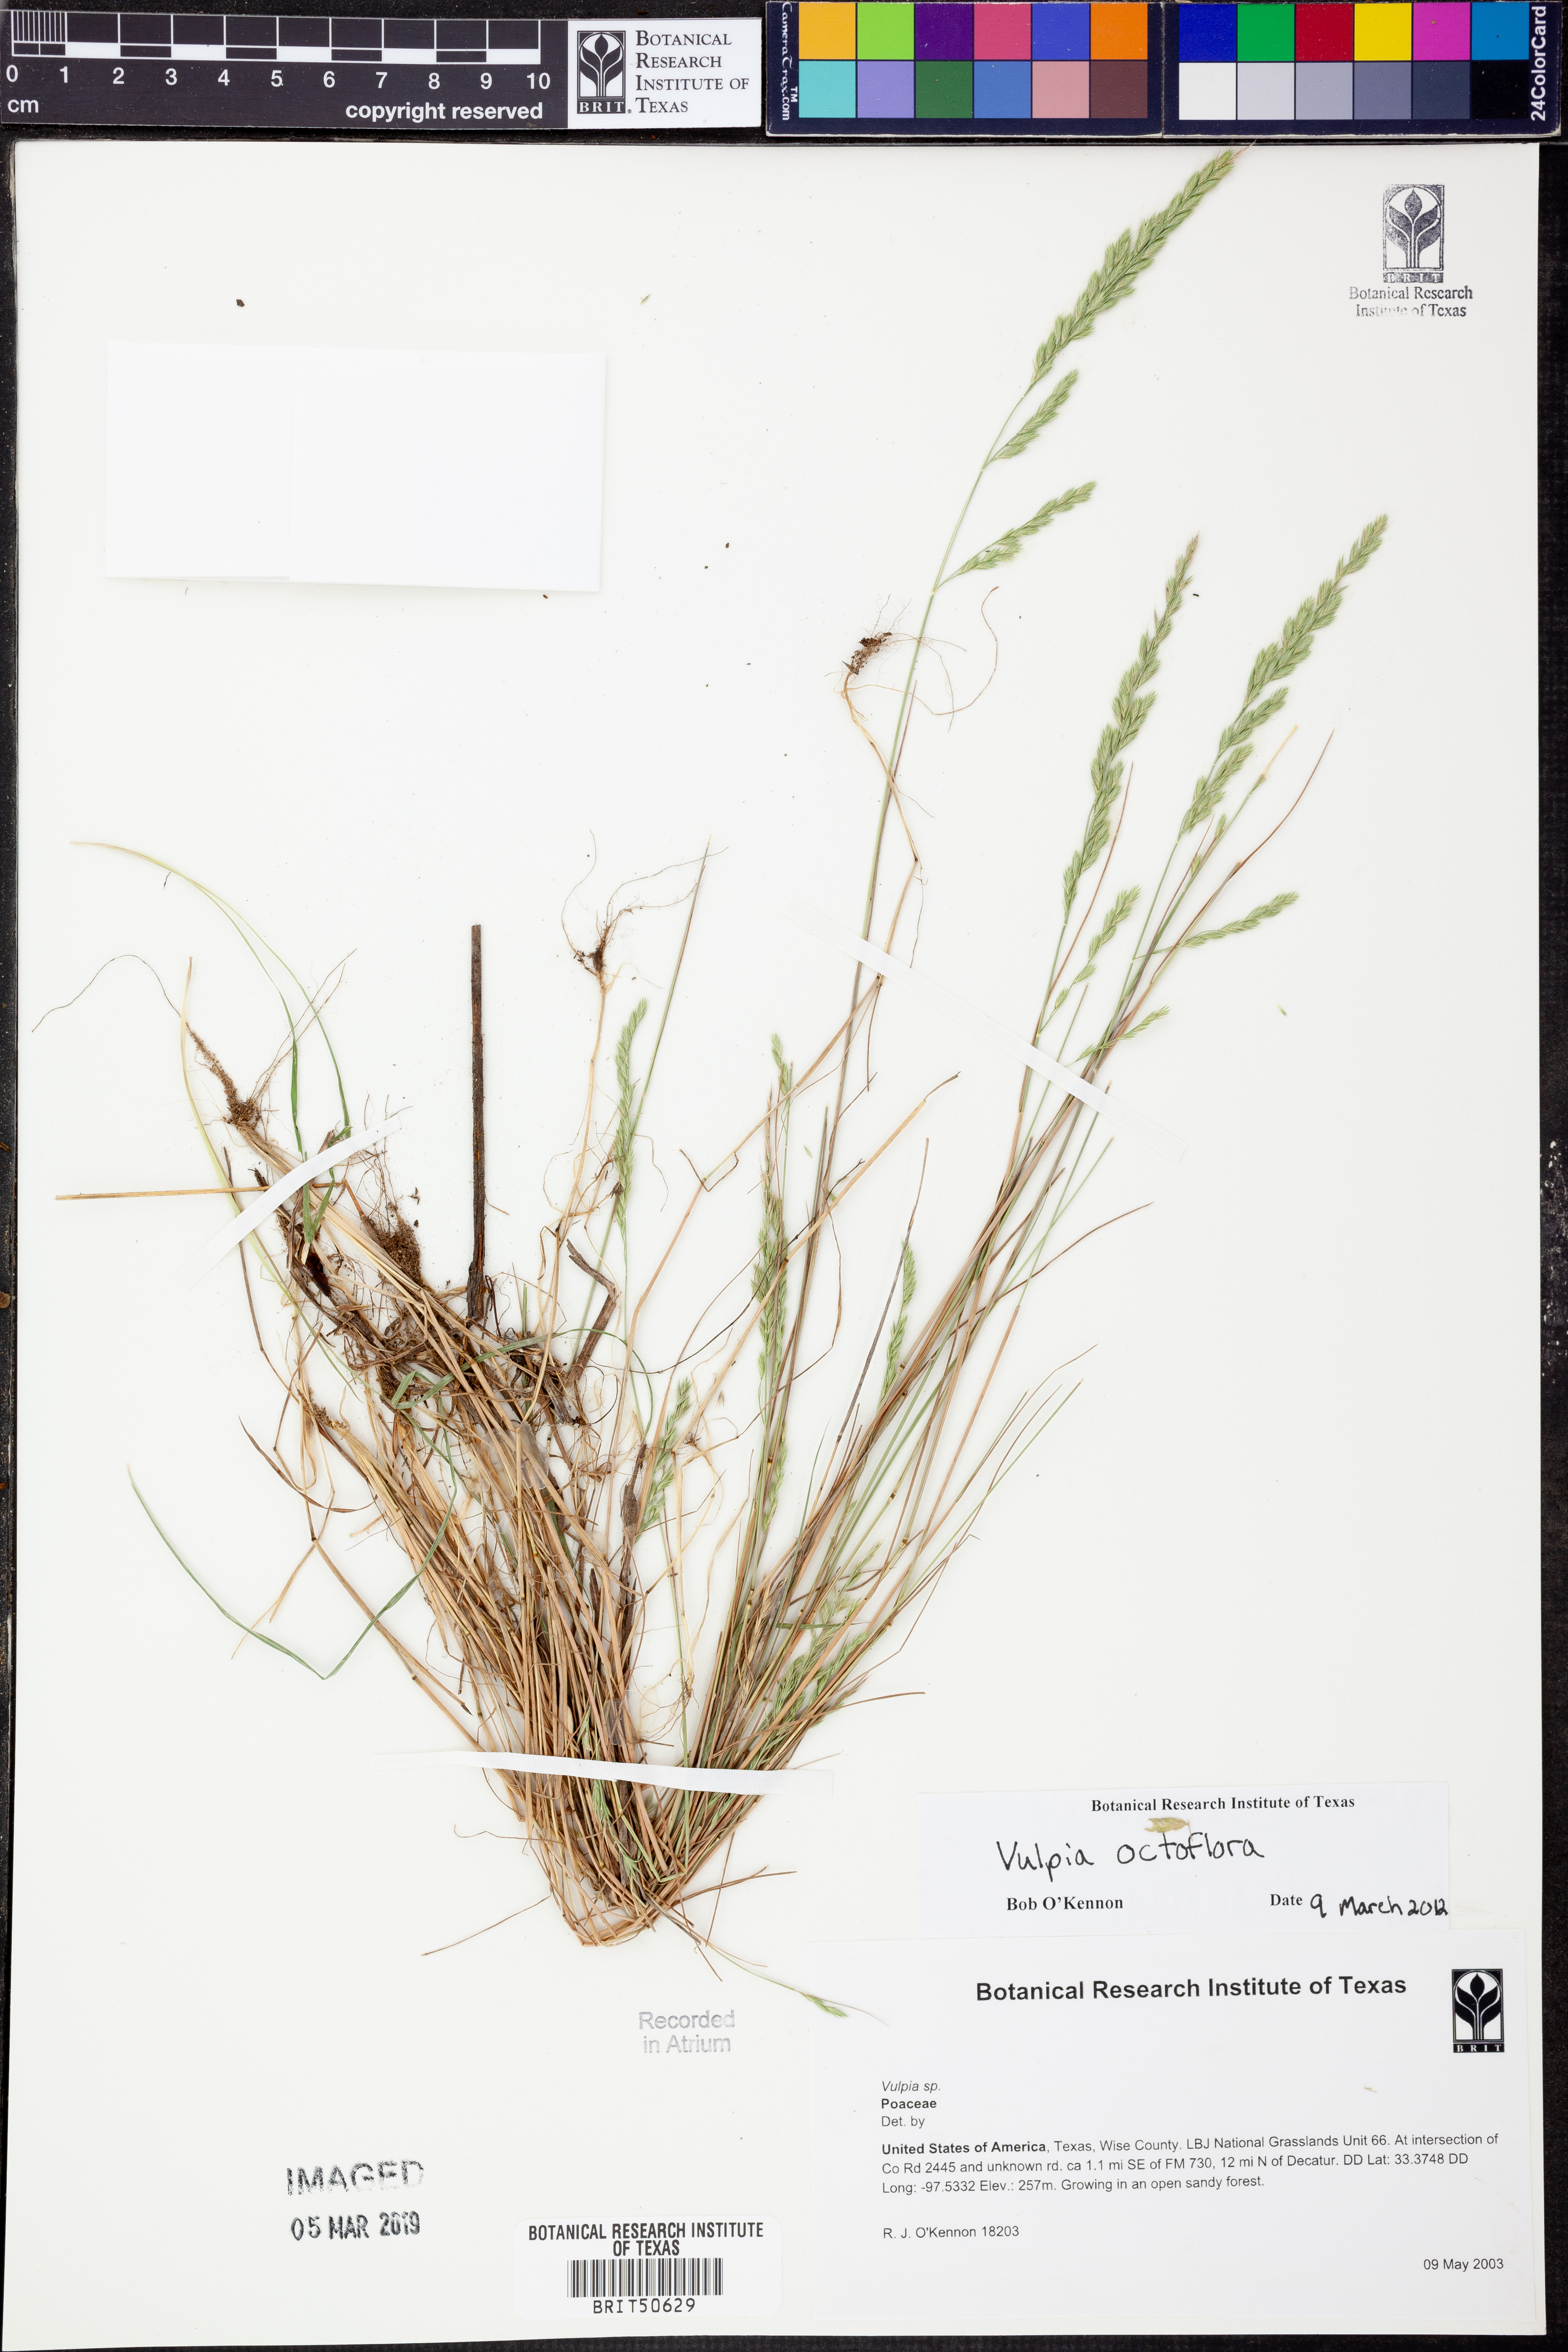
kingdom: Plantae
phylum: Tracheophyta
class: Liliopsida
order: Poales
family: Poaceae
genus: Festuca
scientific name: Festuca octoflora
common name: Sixweeks grass
